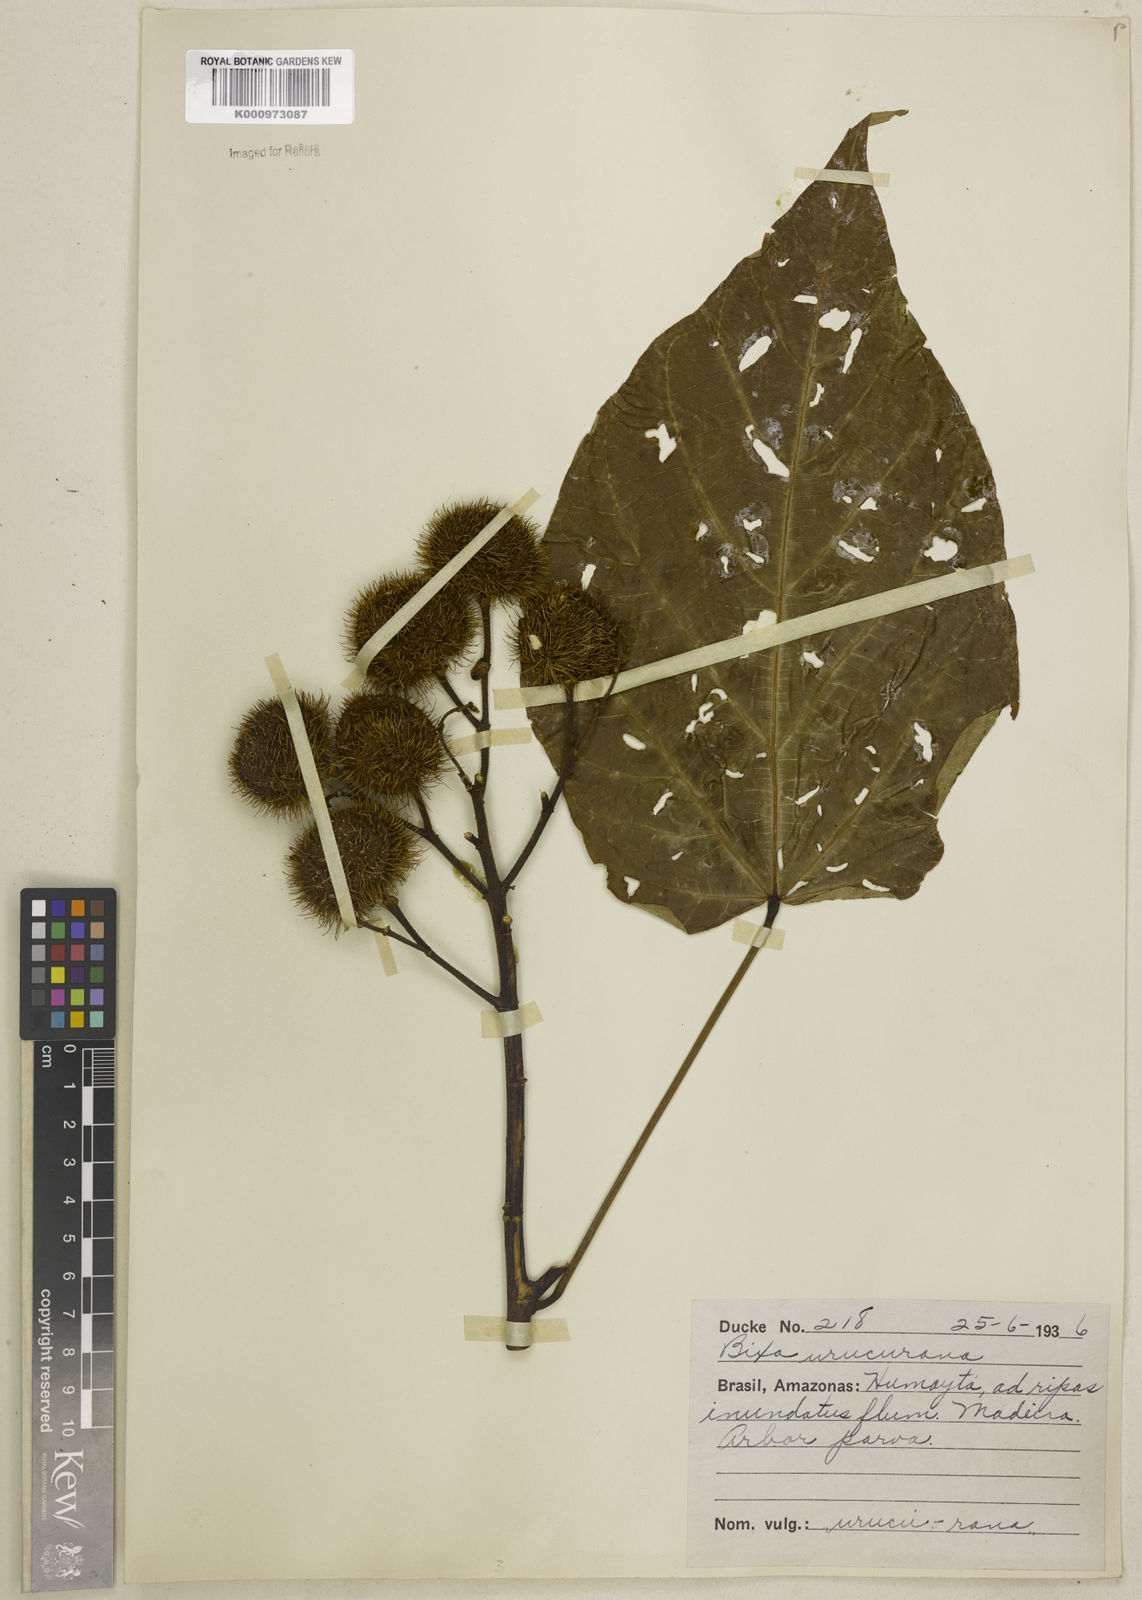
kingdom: Plantae
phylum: Tracheophyta
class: Magnoliopsida
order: Malvales
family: Bixaceae
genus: Bixa
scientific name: Bixa excelsa
